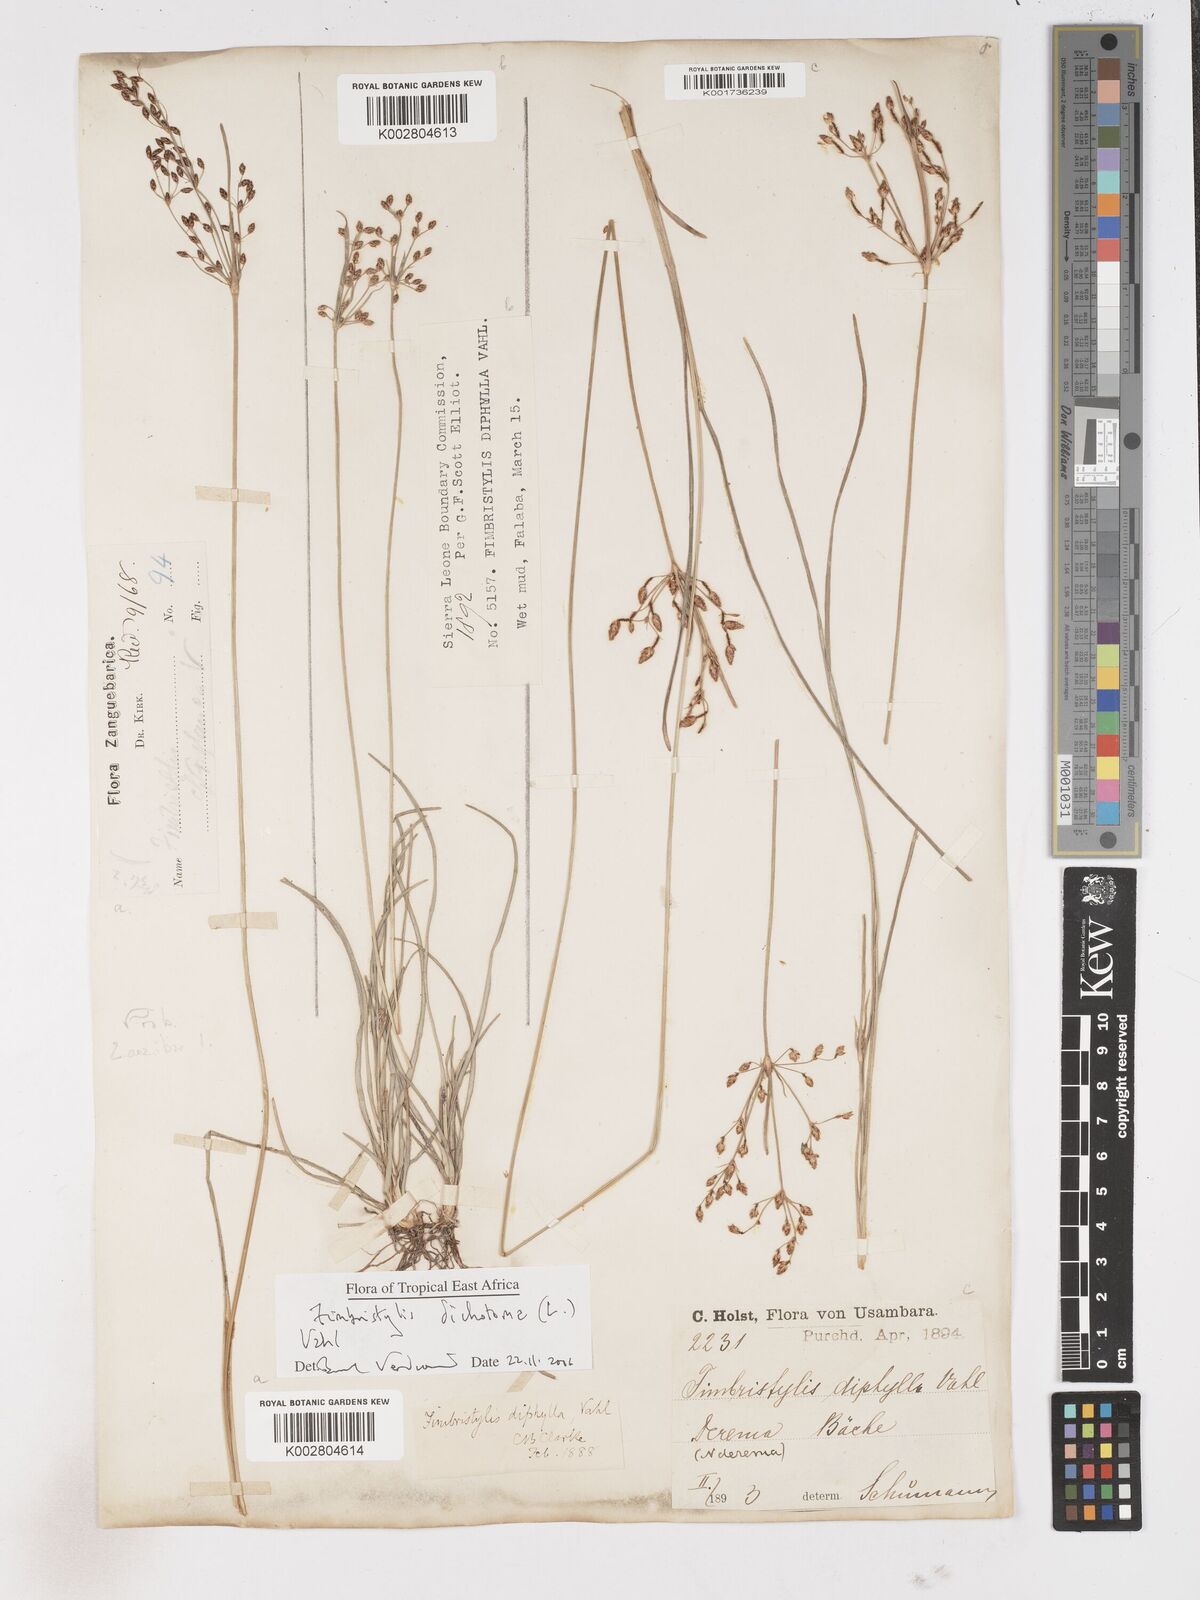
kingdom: Plantae
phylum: Tracheophyta
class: Liliopsida
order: Poales
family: Cyperaceae
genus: Fimbristylis
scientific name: Fimbristylis dichotoma
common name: Forked fimbry
